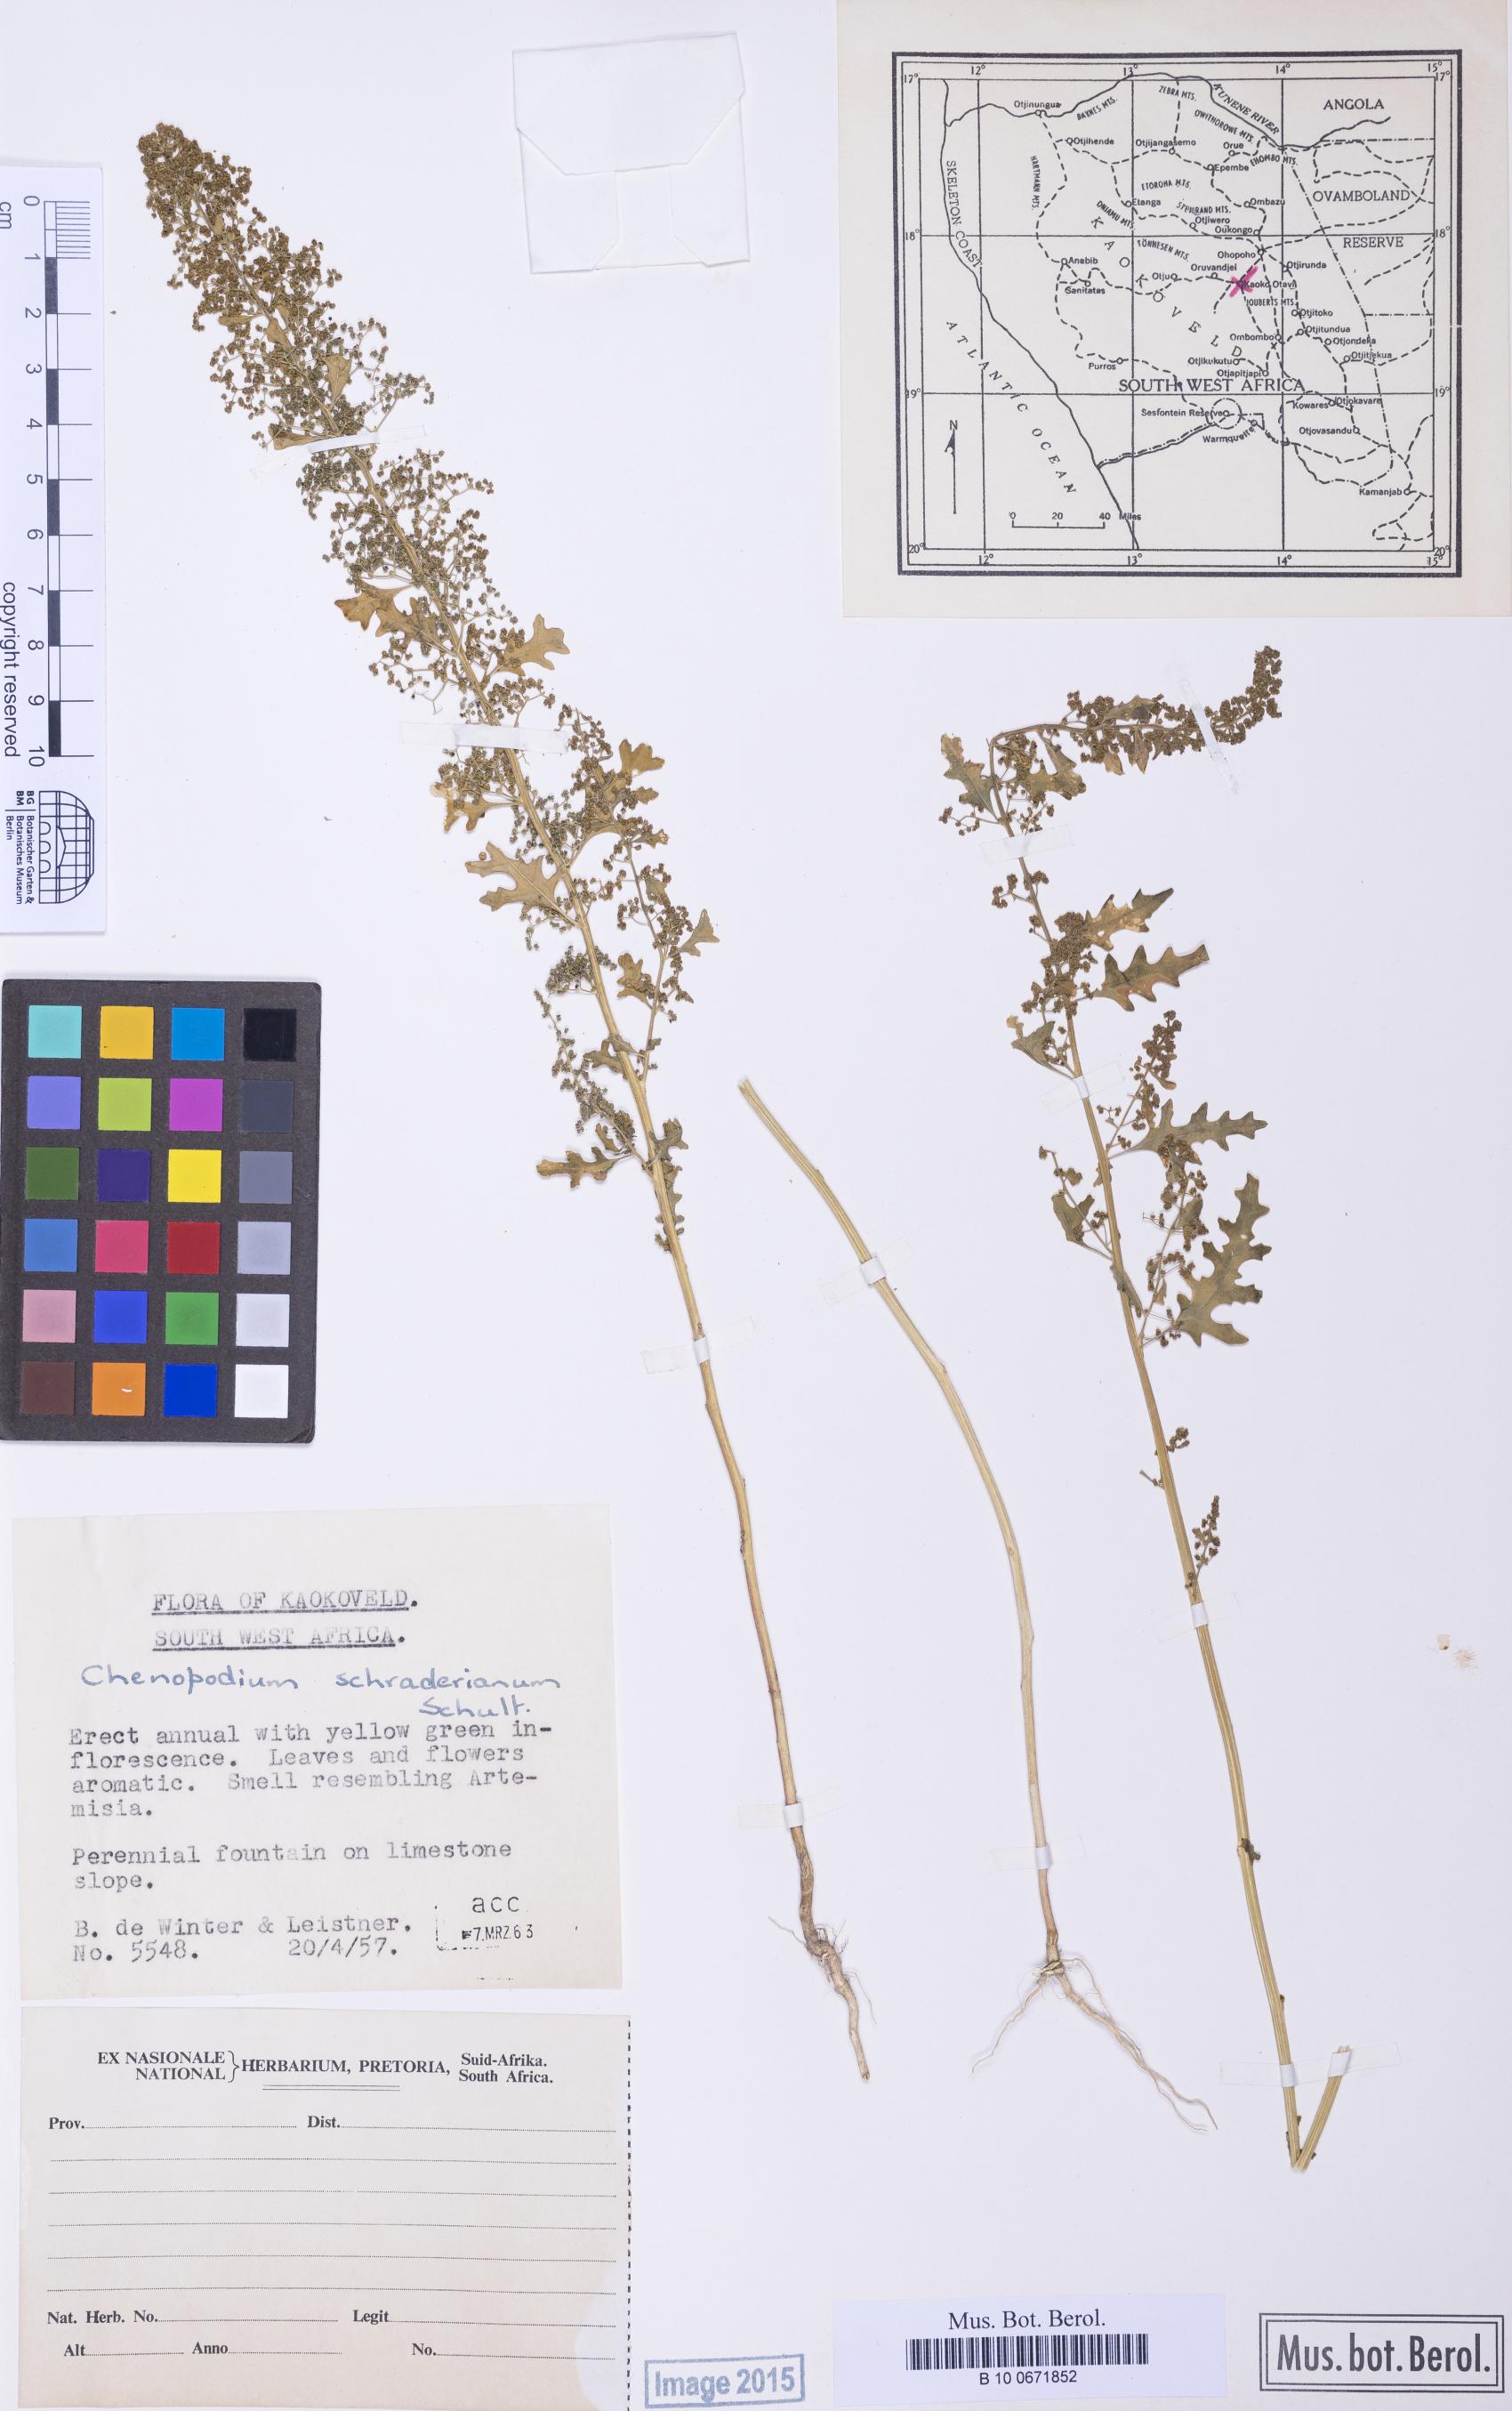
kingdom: Plantae
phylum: Tracheophyta
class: Magnoliopsida
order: Caryophyllales
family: Amaranthaceae
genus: Dysphania
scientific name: Dysphania pseudomultiflora
